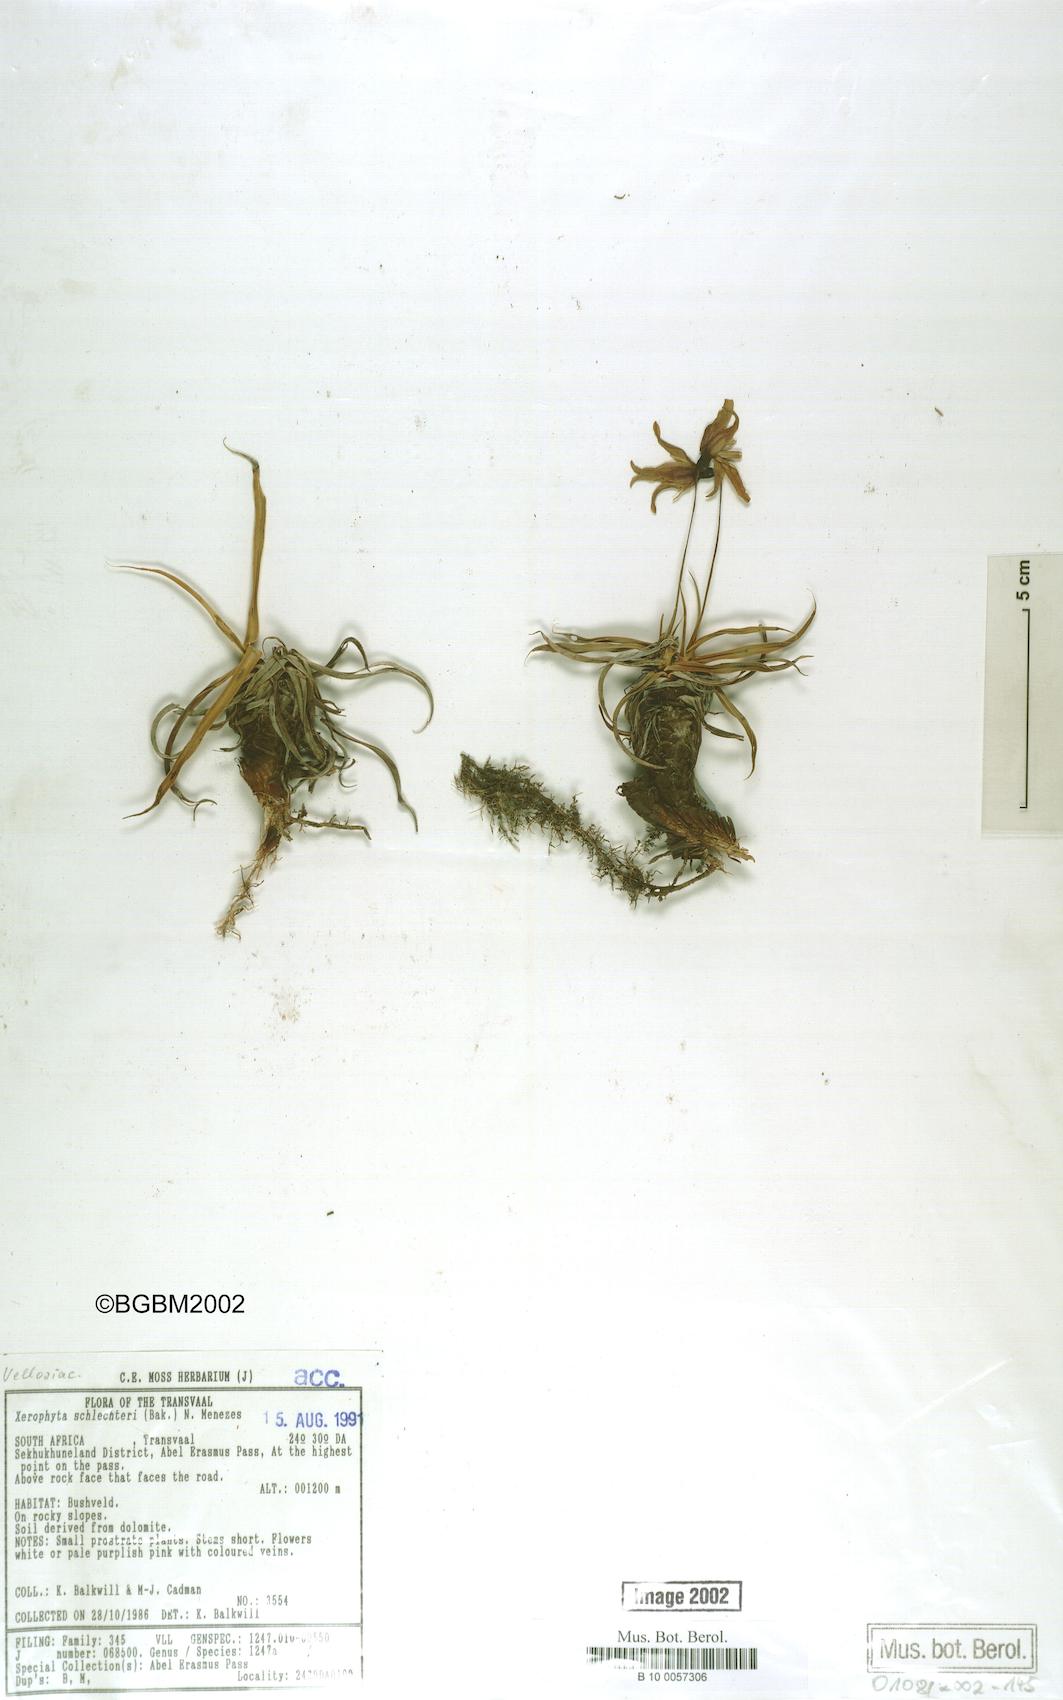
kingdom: Plantae
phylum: Tracheophyta
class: Liliopsida
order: Pandanales
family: Velloziaceae
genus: Xerophyta
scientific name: Xerophyta schlechteri
